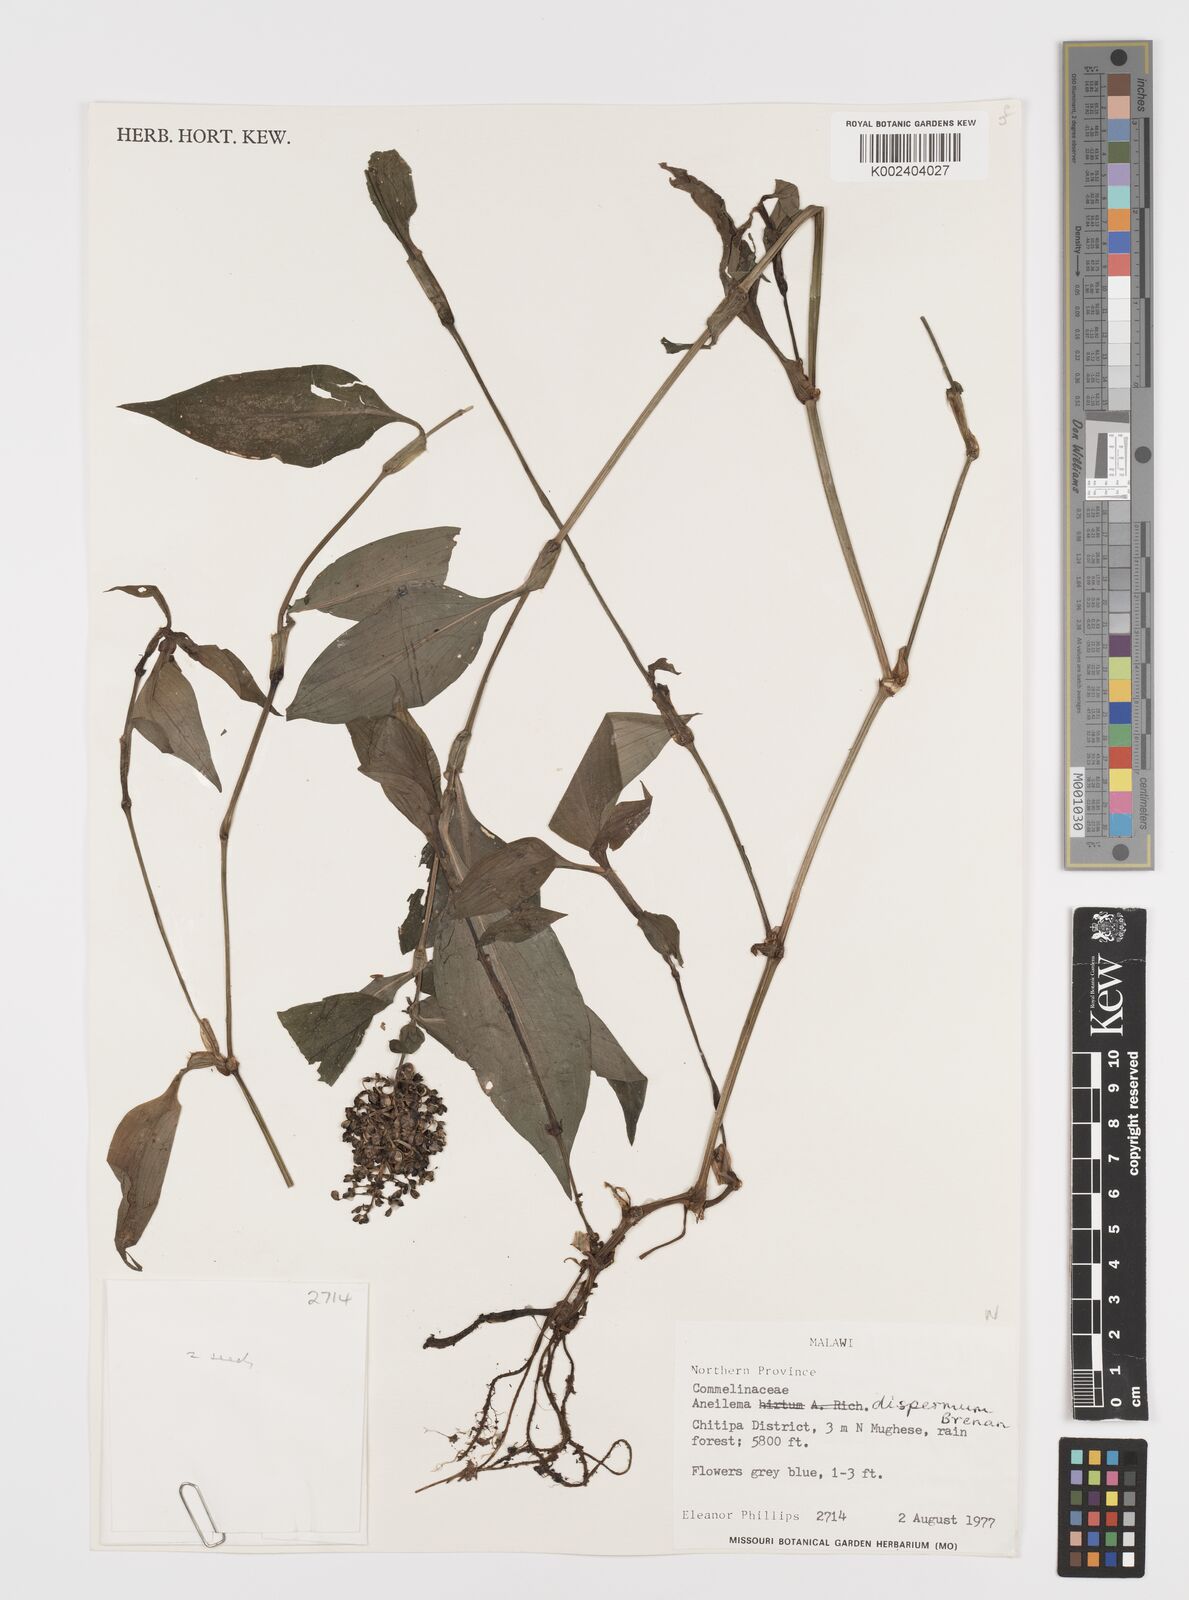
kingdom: Plantae
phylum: Tracheophyta
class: Liliopsida
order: Commelinales
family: Commelinaceae
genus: Aneilema
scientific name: Aneilema dispermum
